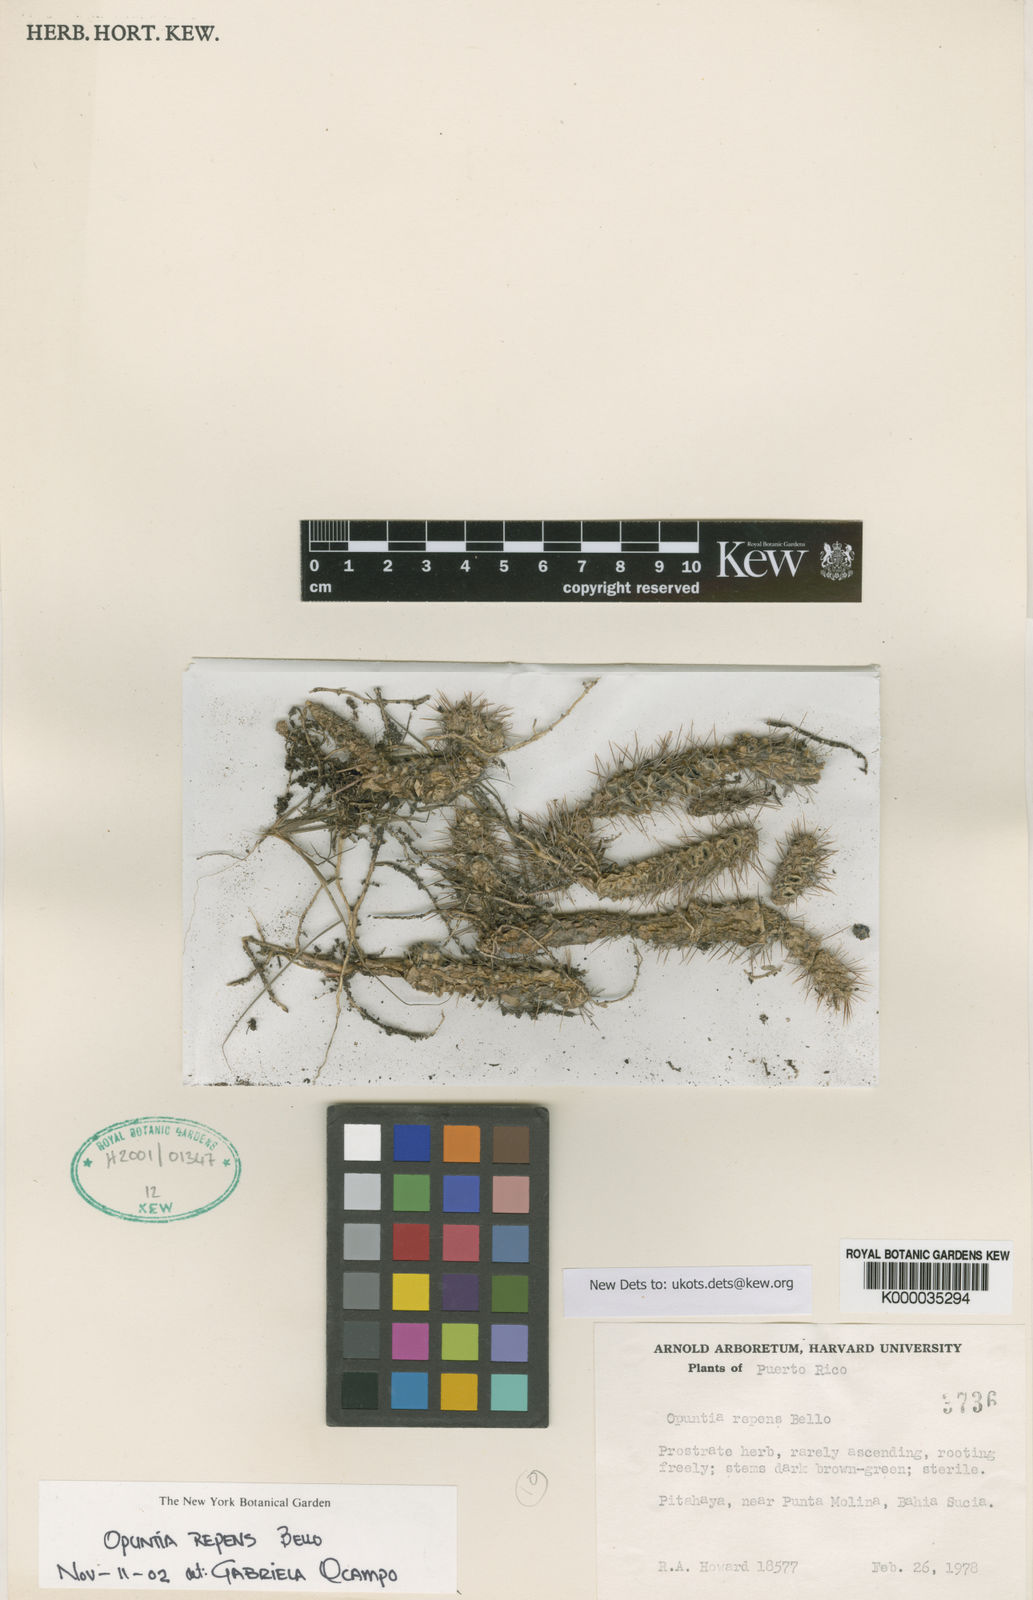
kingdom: Plantae
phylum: Tracheophyta
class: Magnoliopsida
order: Caryophyllales
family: Cactaceae
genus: Opuntia
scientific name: Opuntia repens
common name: Roving pricklypear
